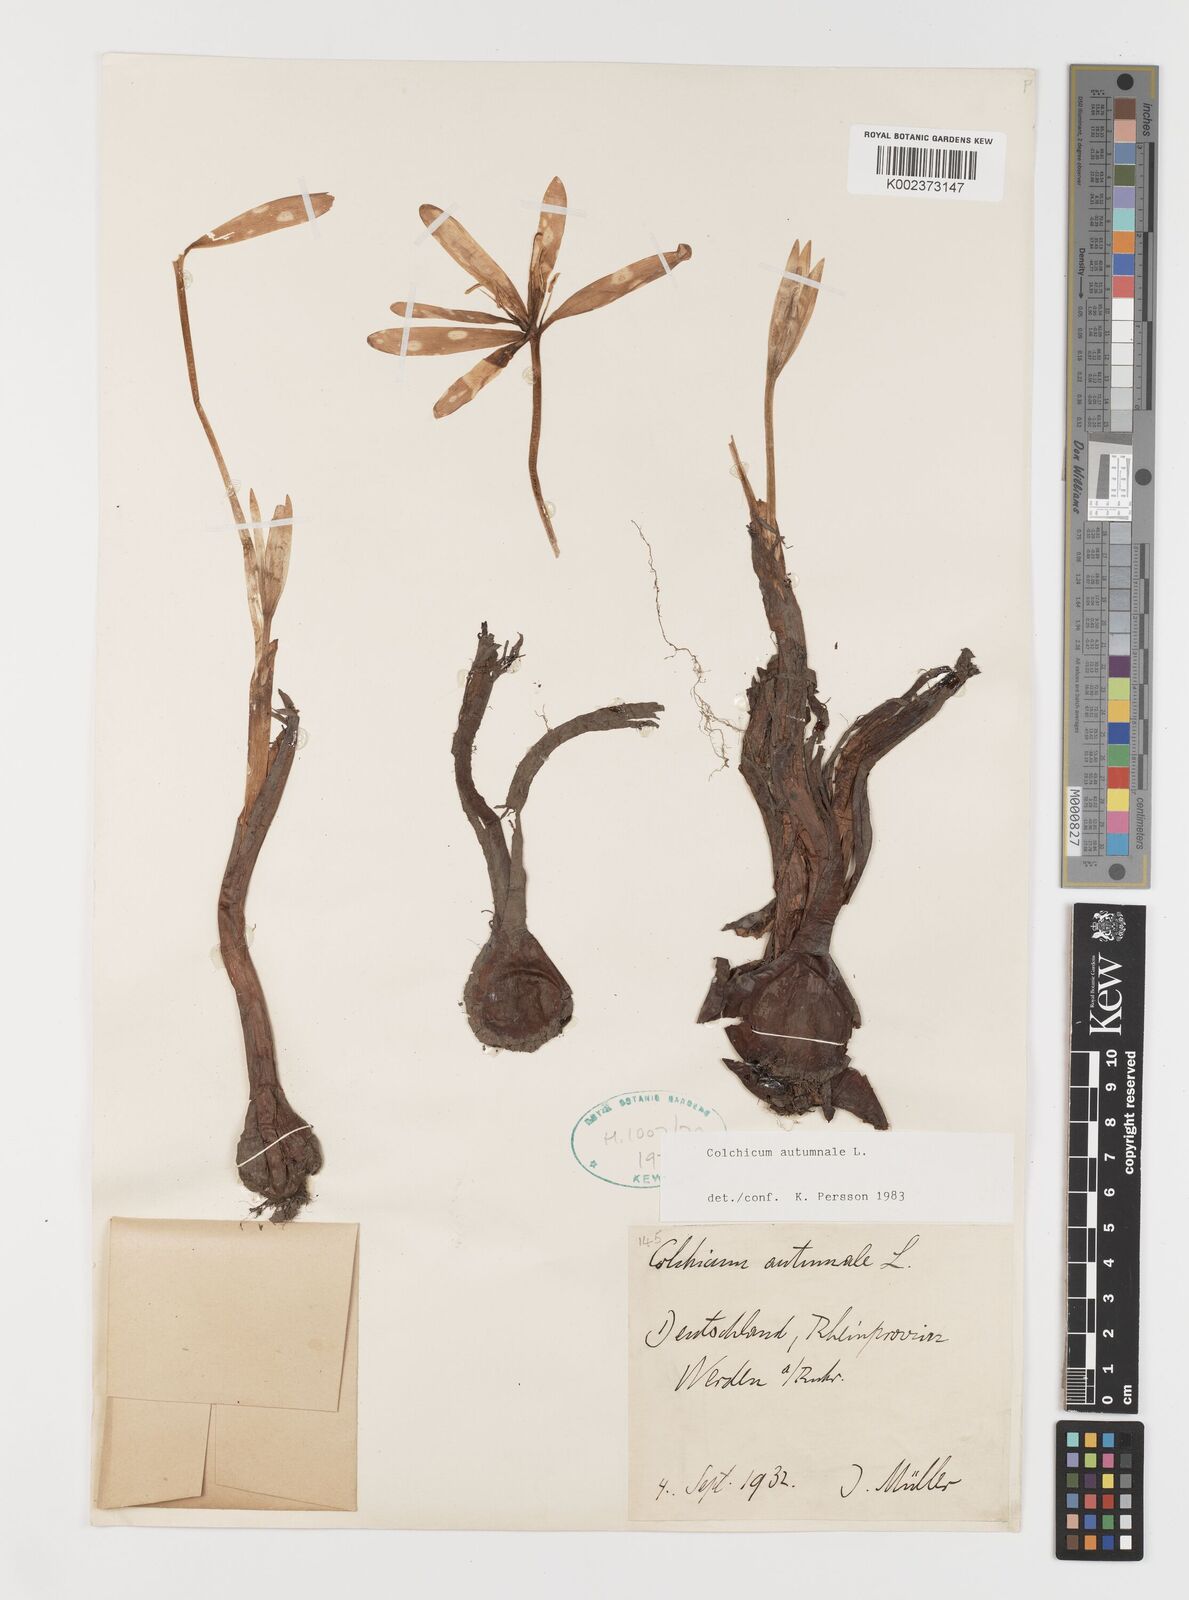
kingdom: Plantae
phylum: Tracheophyta
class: Liliopsida
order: Liliales
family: Colchicaceae
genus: Colchicum
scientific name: Colchicum autumnale
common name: Autumn crocus
